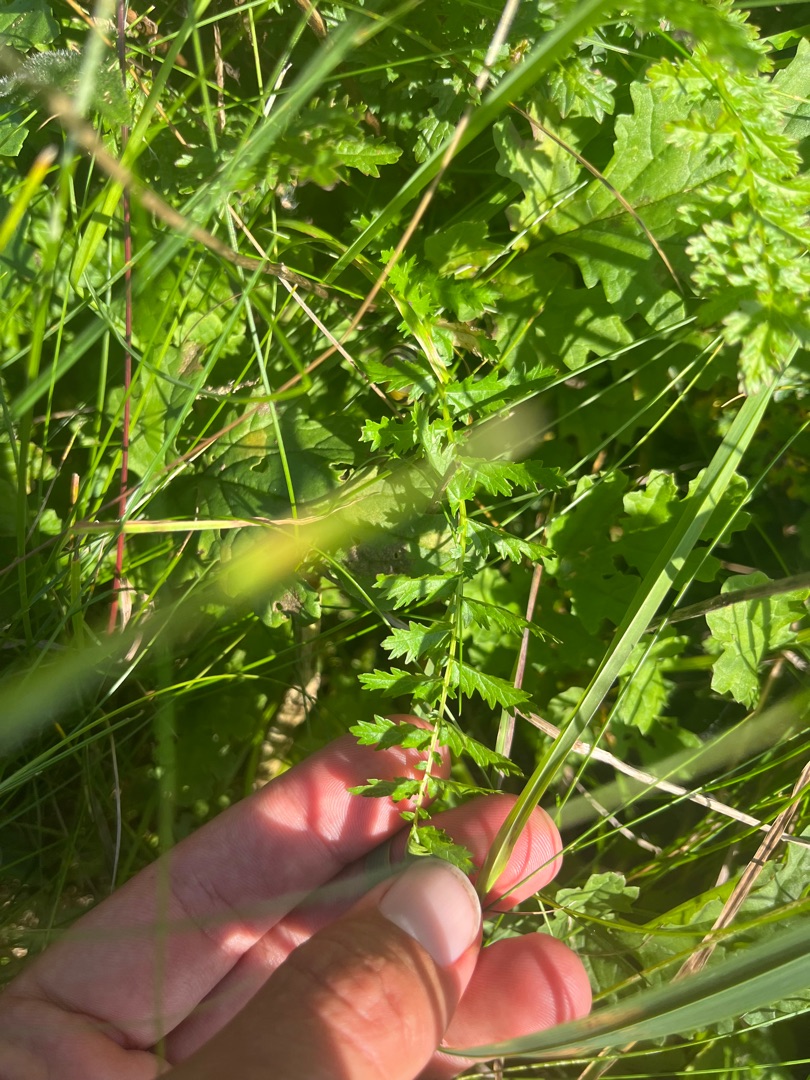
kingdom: Plantae
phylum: Tracheophyta
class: Magnoliopsida
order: Rosales
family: Rosaceae
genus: Filipendula
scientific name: Filipendula vulgaris
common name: Knoldet mjødurt
